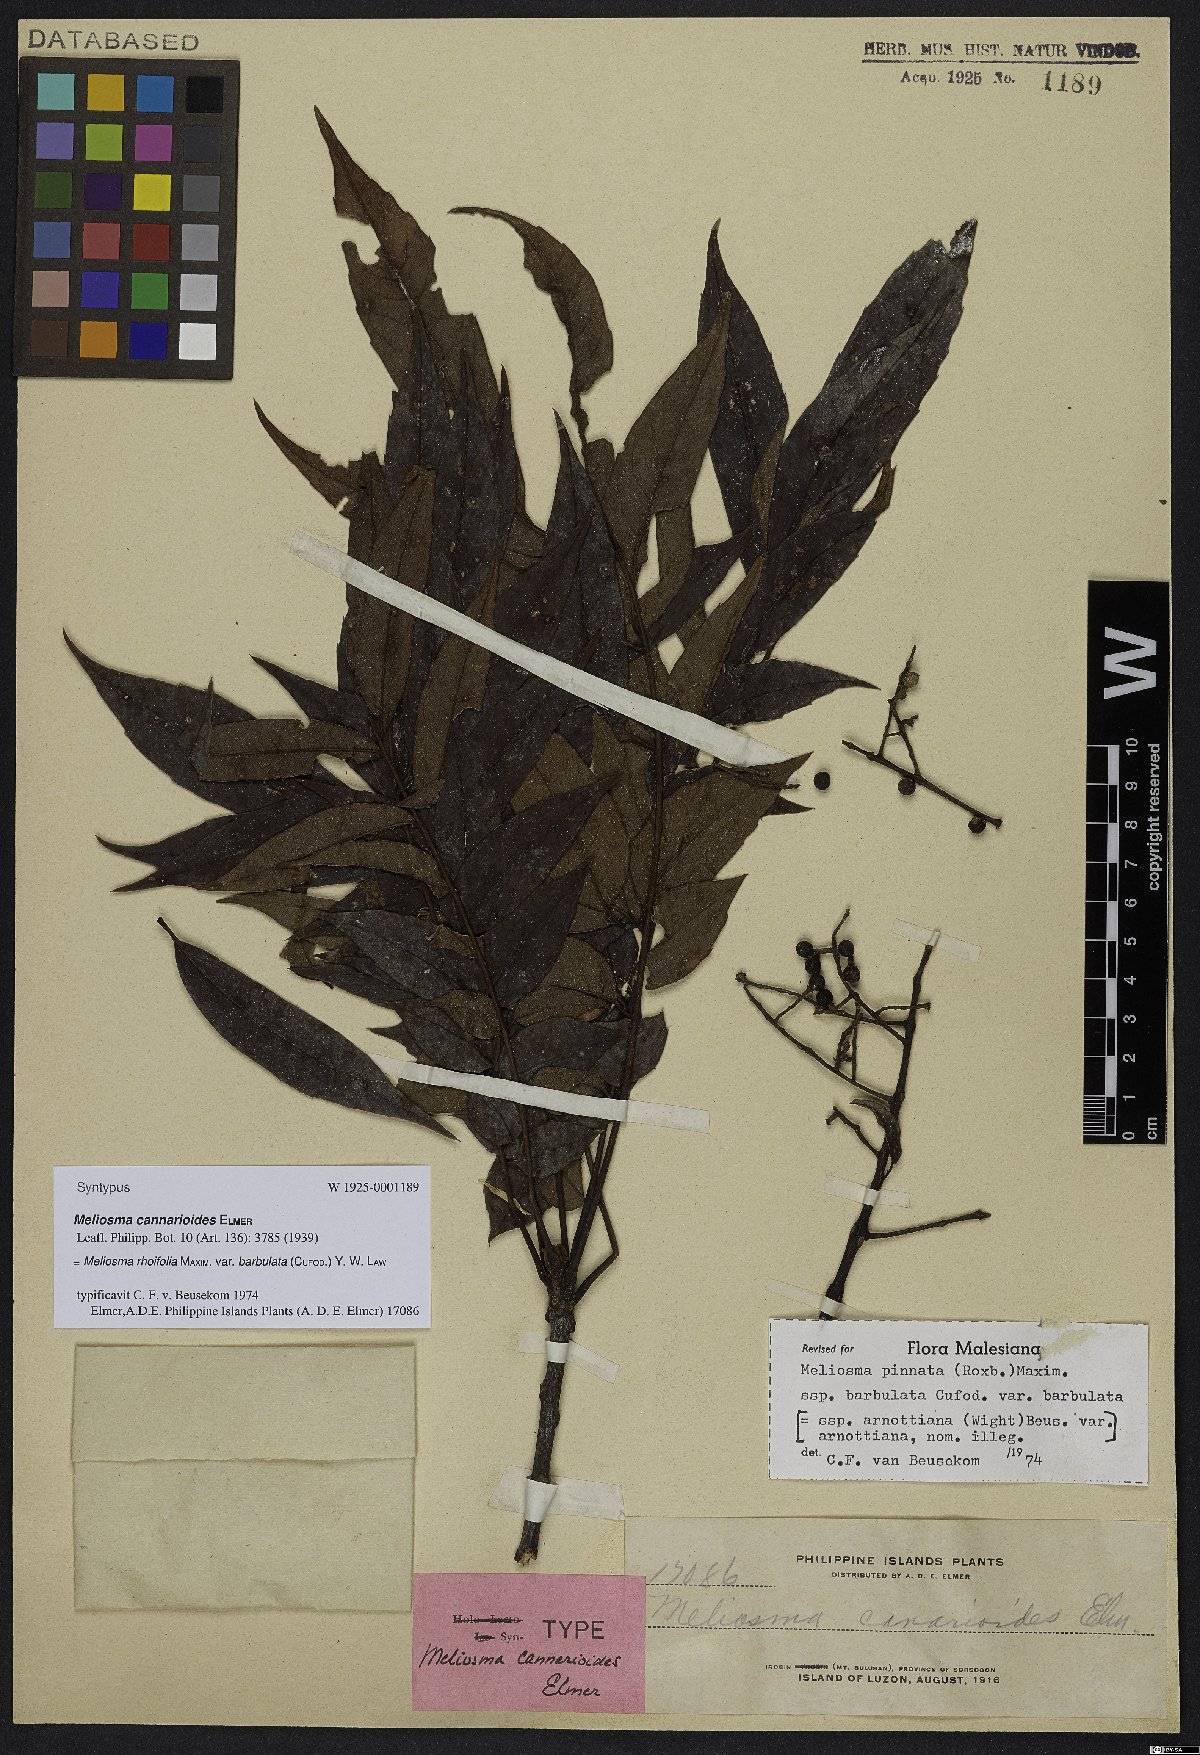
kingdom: Plantae
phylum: Tracheophyta
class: Magnoliopsida
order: Proteales
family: Sabiaceae
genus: Meliosma
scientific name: Meliosma rhoifolia
